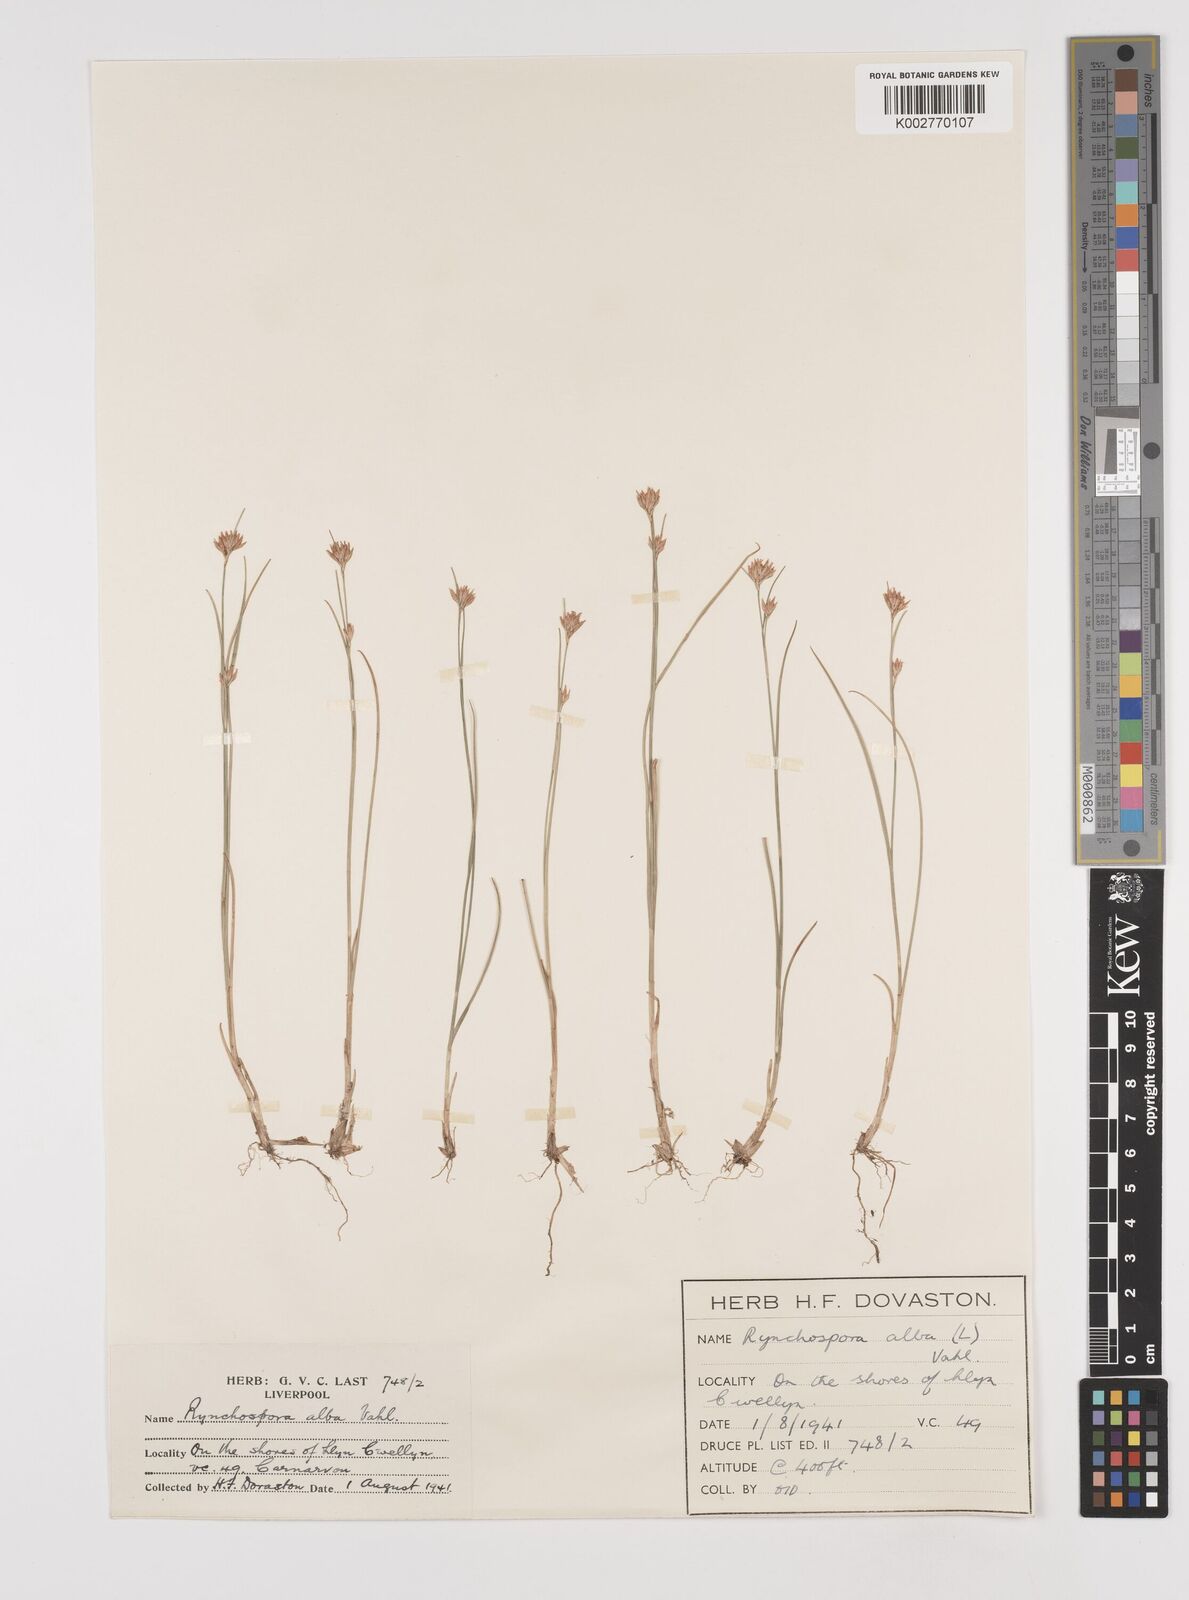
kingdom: Plantae
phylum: Tracheophyta
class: Liliopsida
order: Poales
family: Cyperaceae
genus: Rhynchospora
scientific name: Rhynchospora alba
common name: White beak-sedge
